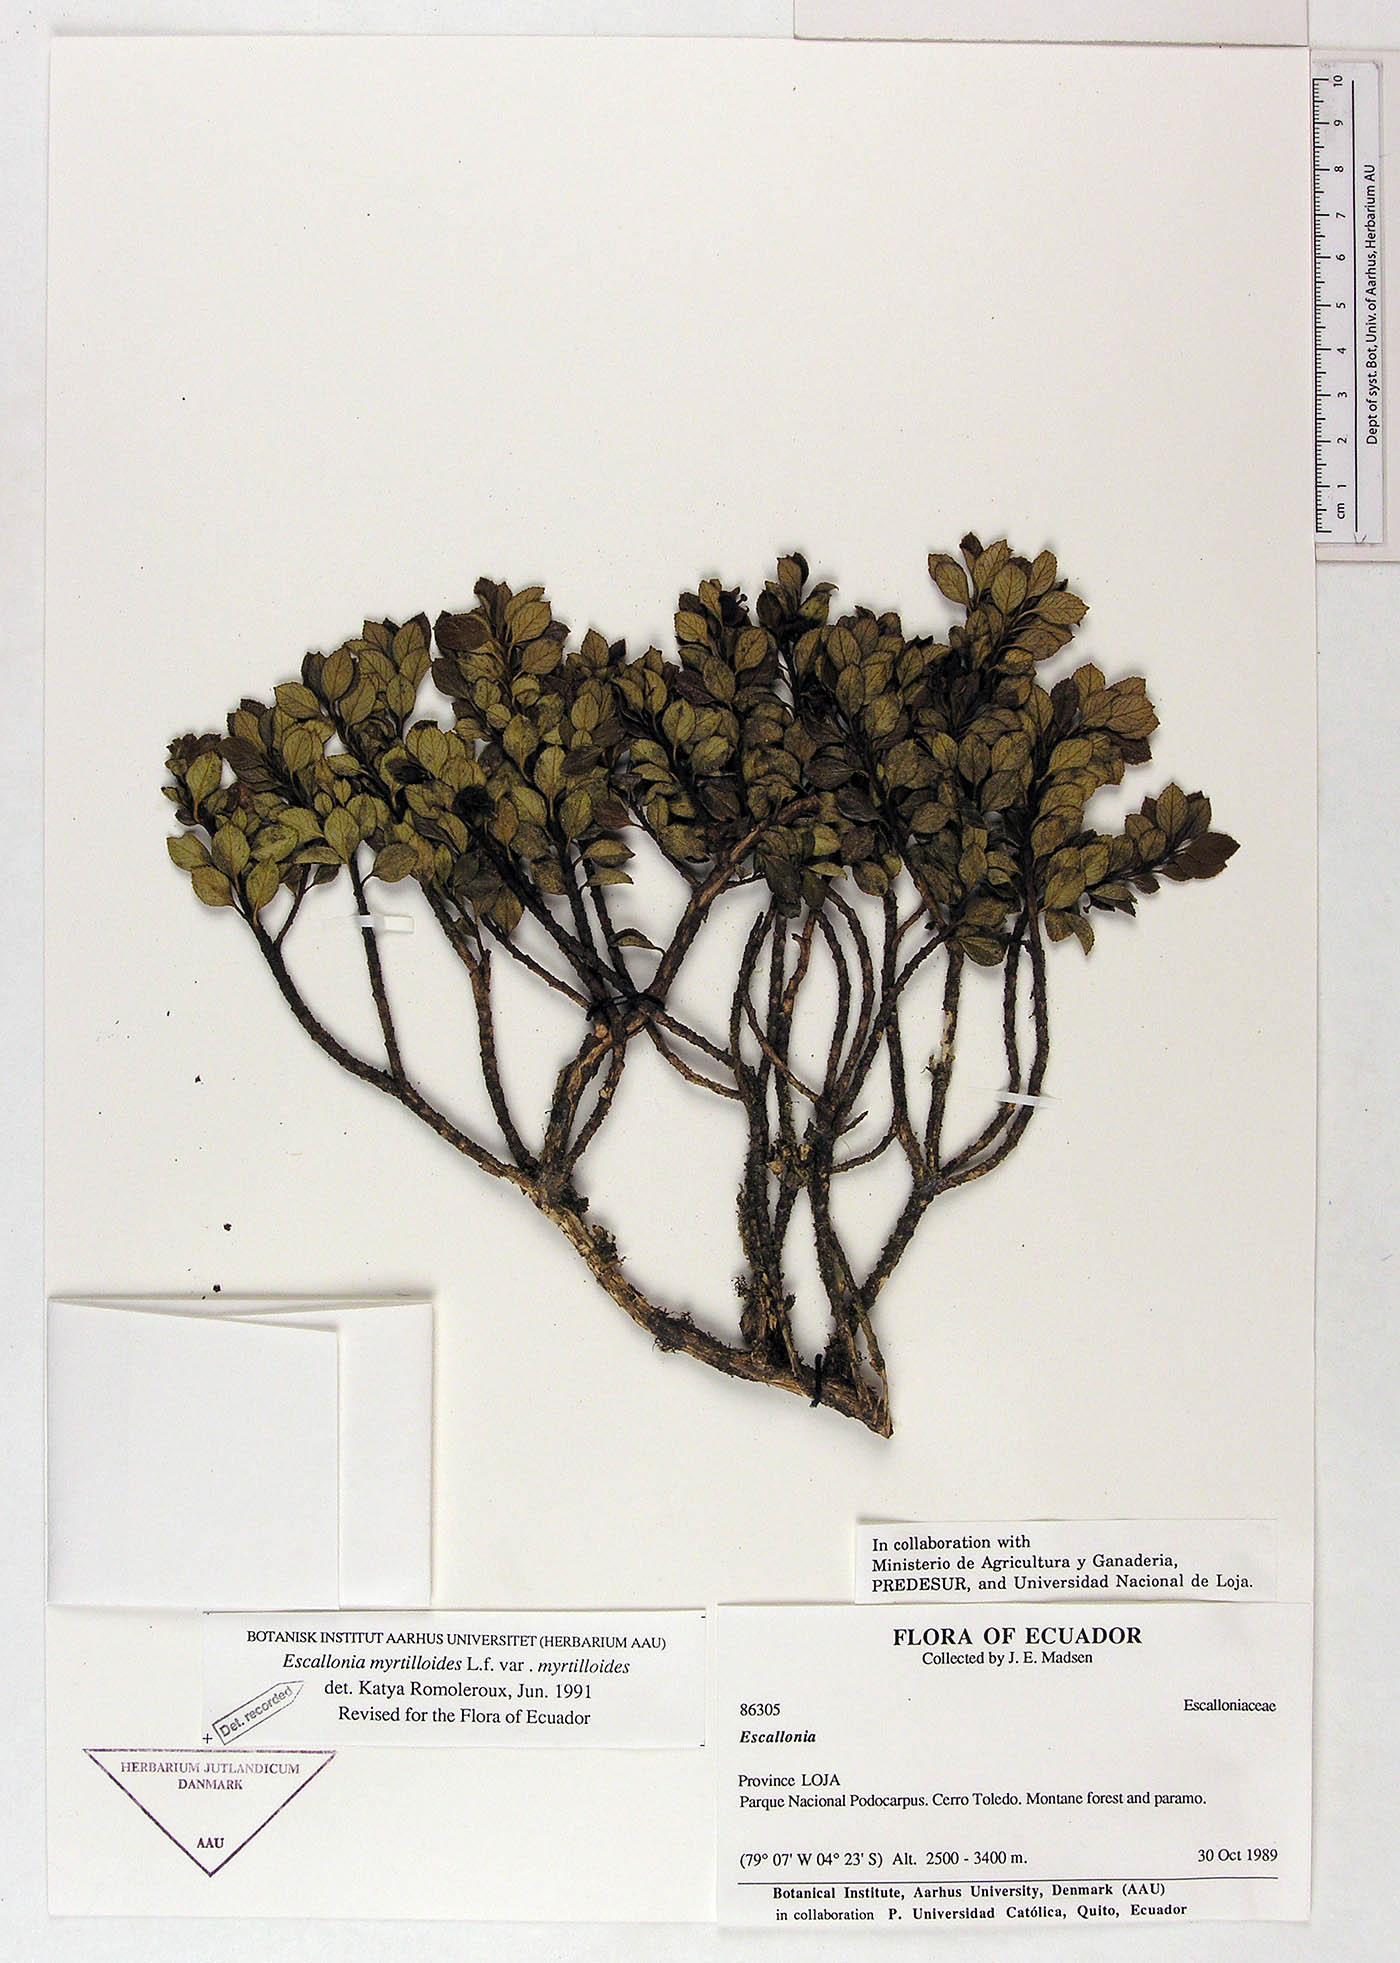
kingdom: Plantae
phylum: Tracheophyta
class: Magnoliopsida
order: Escalloniales
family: Escalloniaceae
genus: Escallonia
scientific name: Escallonia myrtilloides
